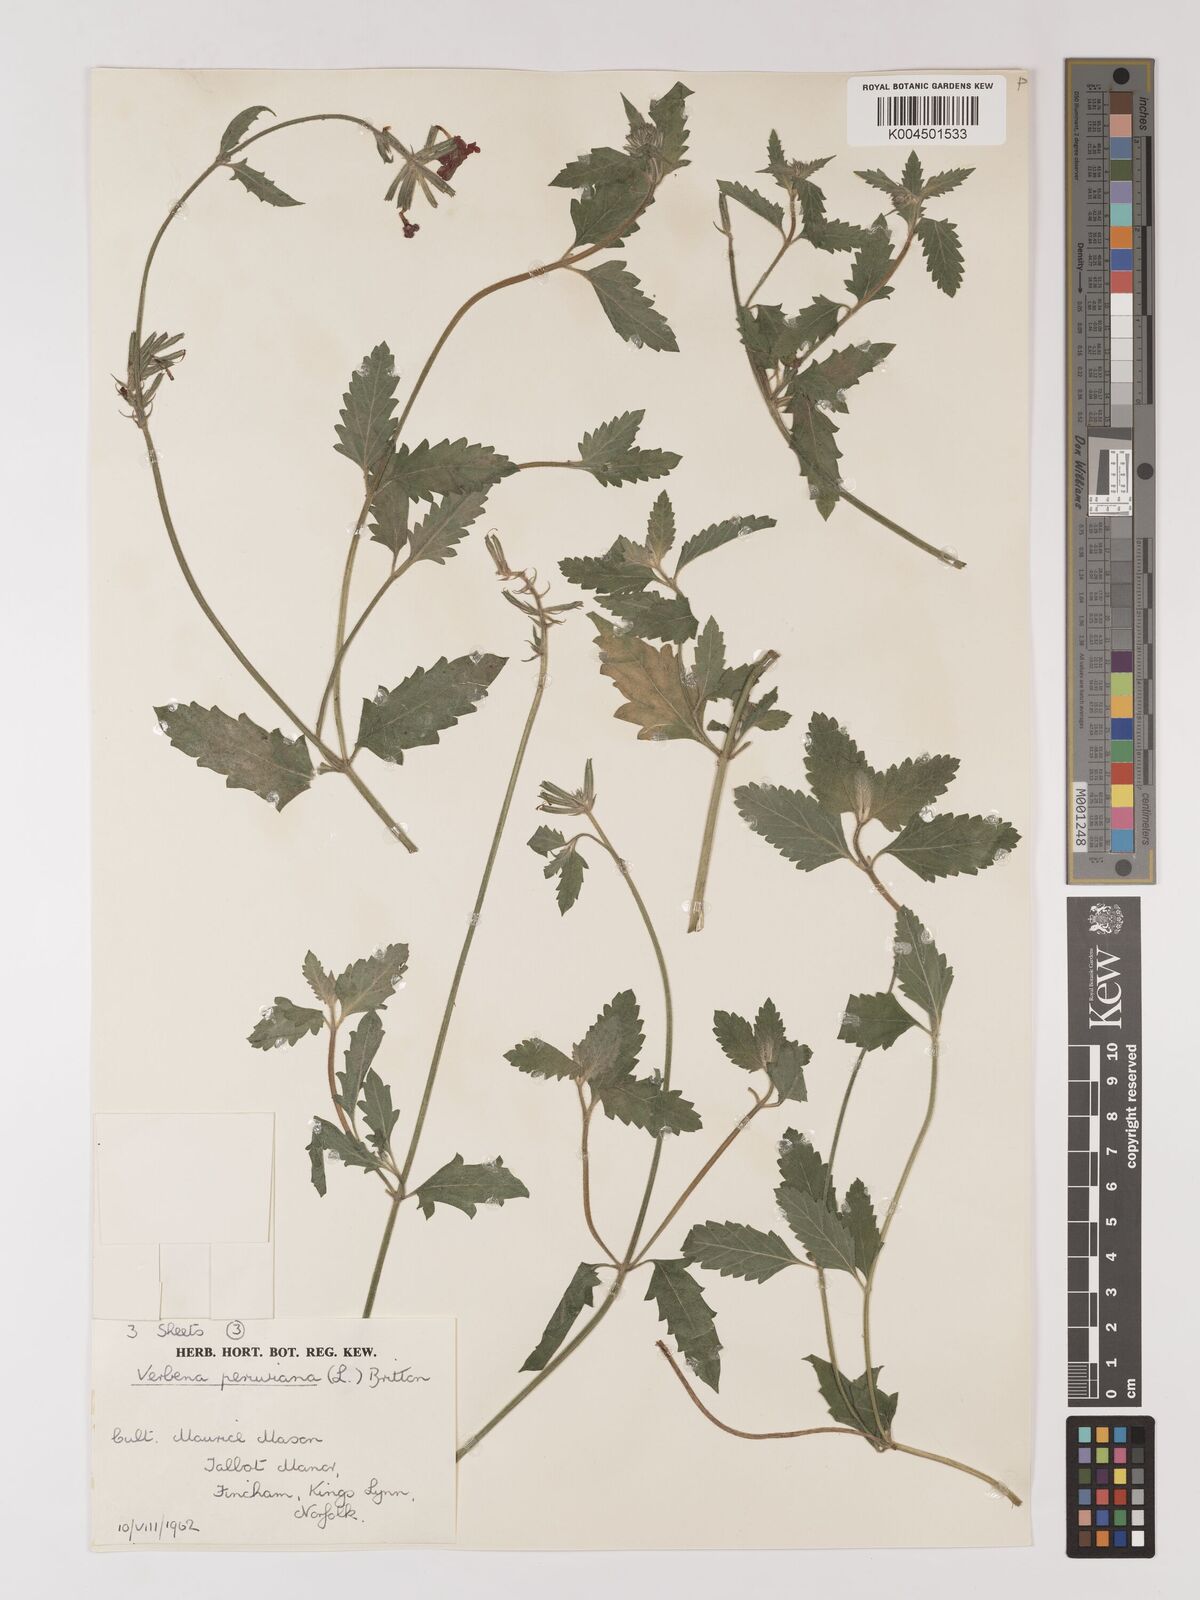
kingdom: Plantae
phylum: Tracheophyta
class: Magnoliopsida
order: Lamiales
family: Verbenaceae
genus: Verbena
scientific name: Verbena peruviana
